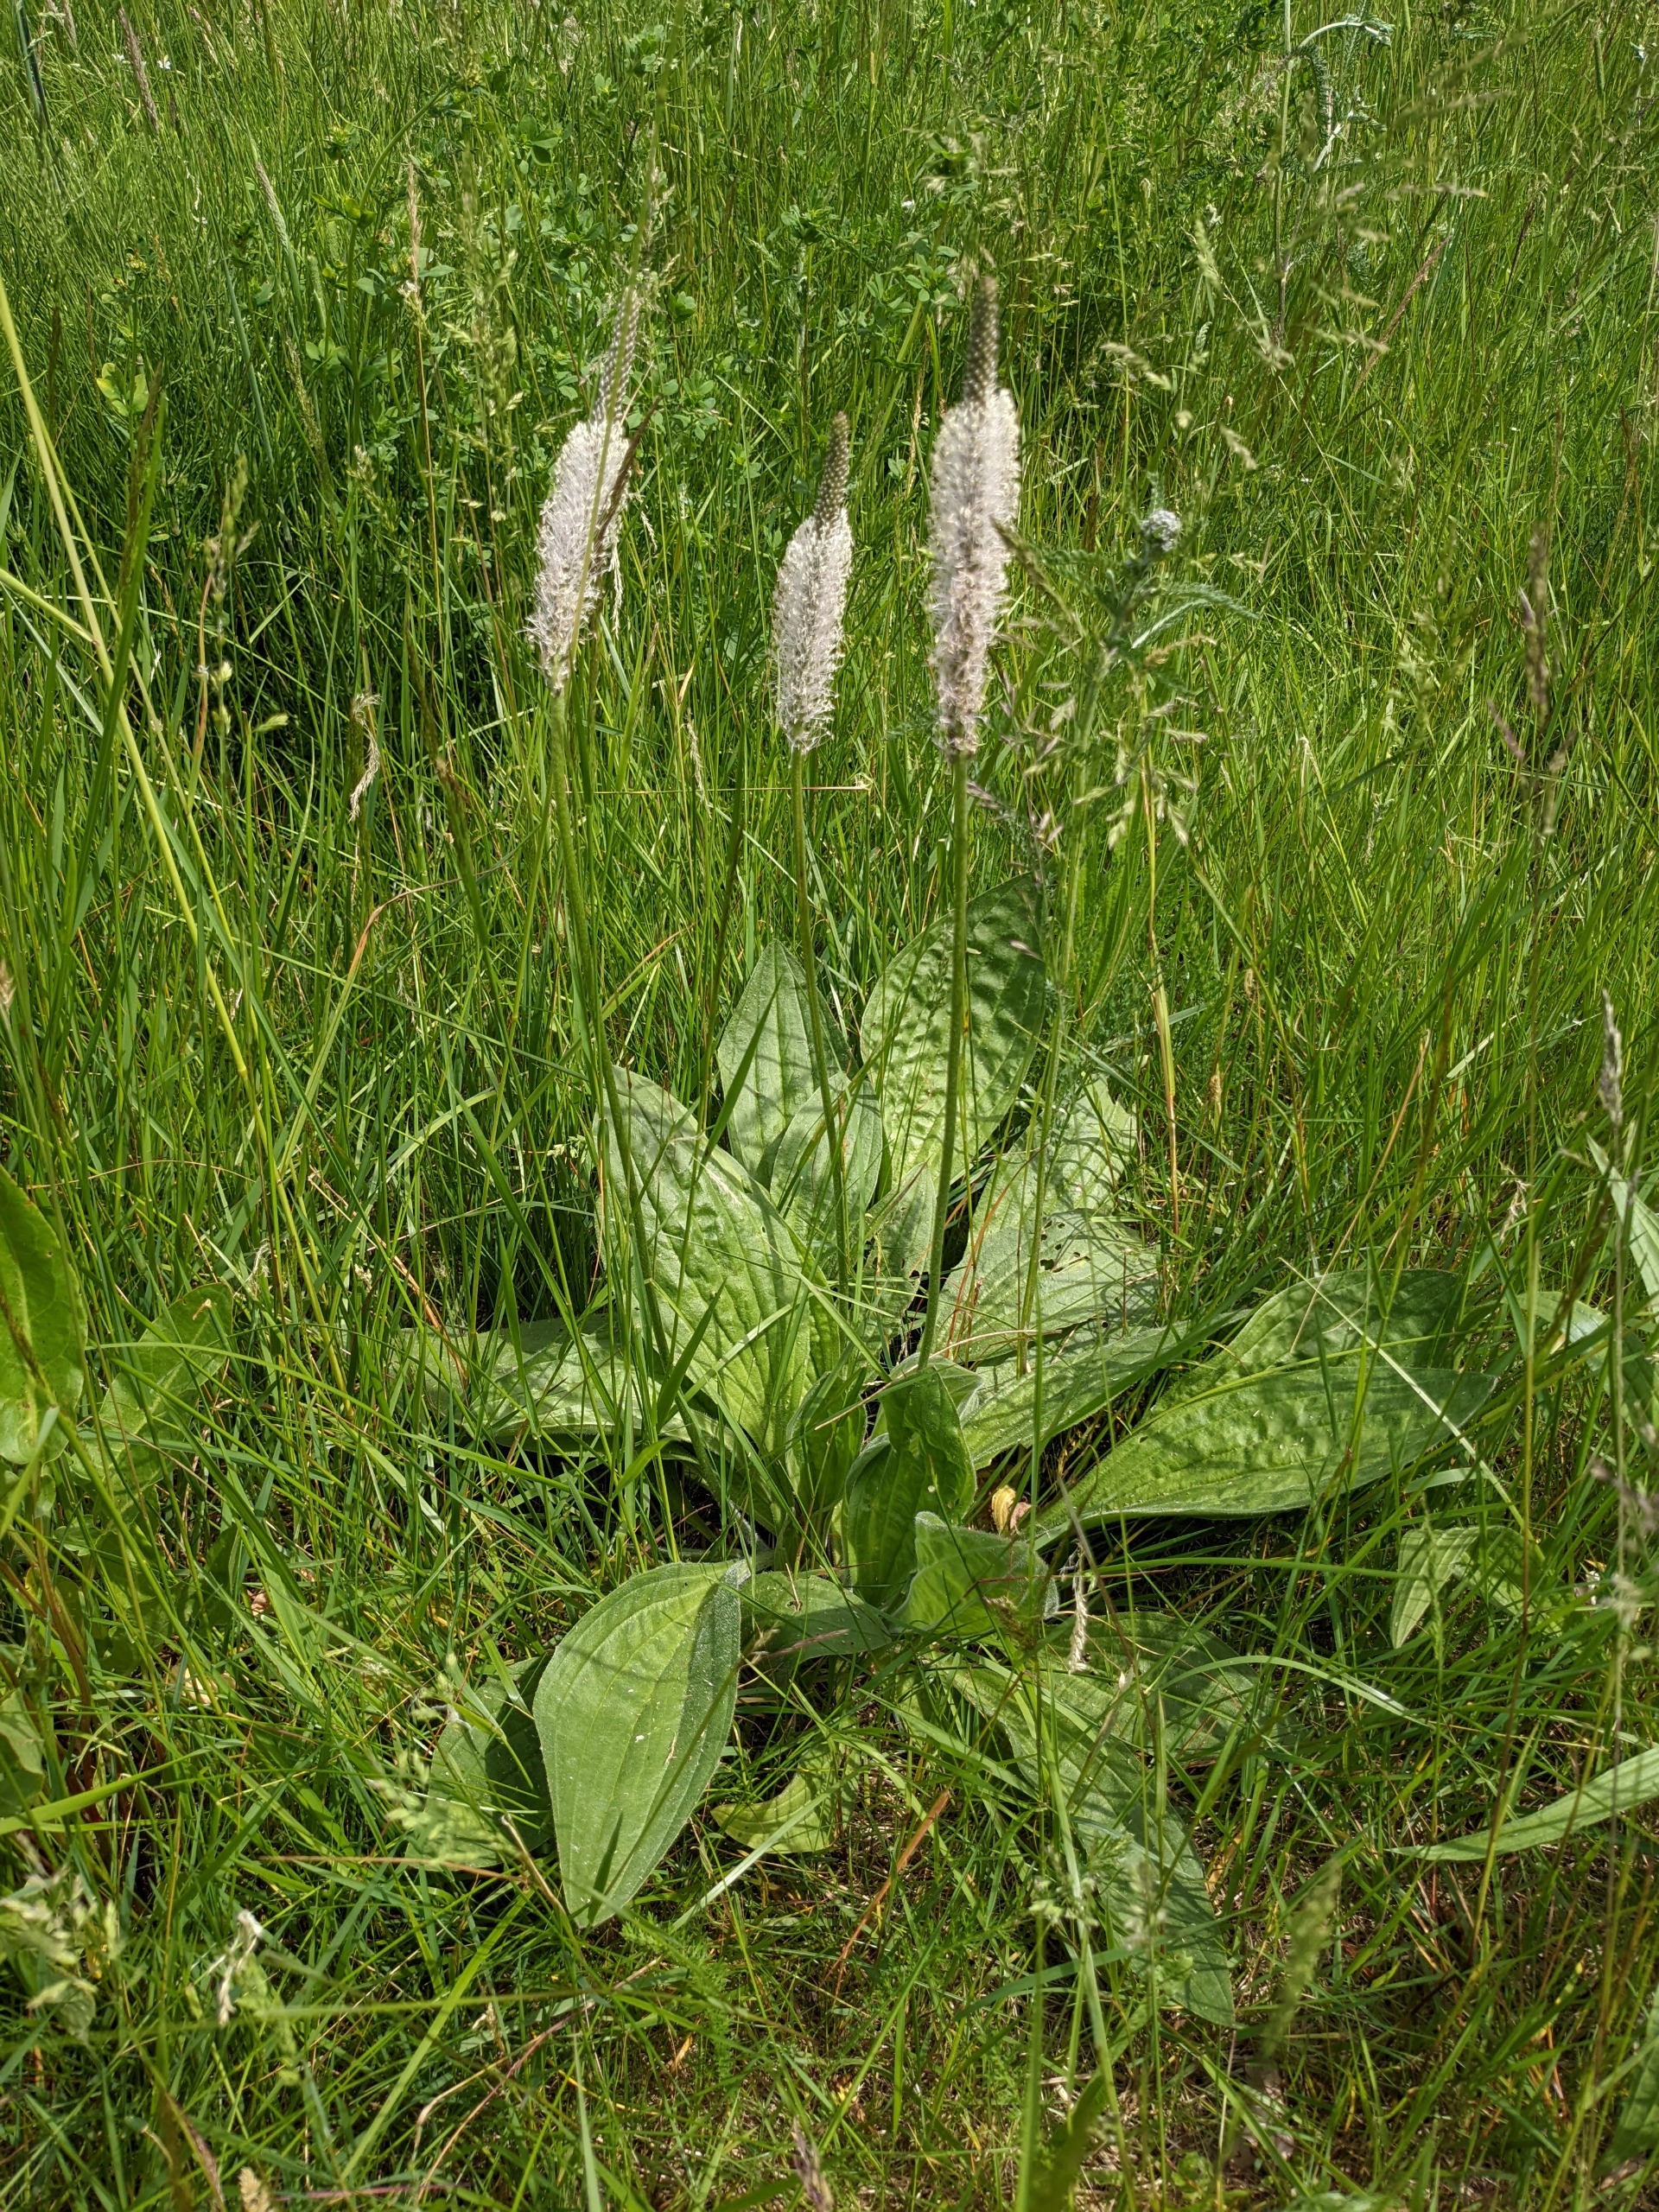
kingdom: Plantae
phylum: Tracheophyta
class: Magnoliopsida
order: Lamiales
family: Plantaginaceae
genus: Plantago
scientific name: Plantago media
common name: Dunet vejbred
